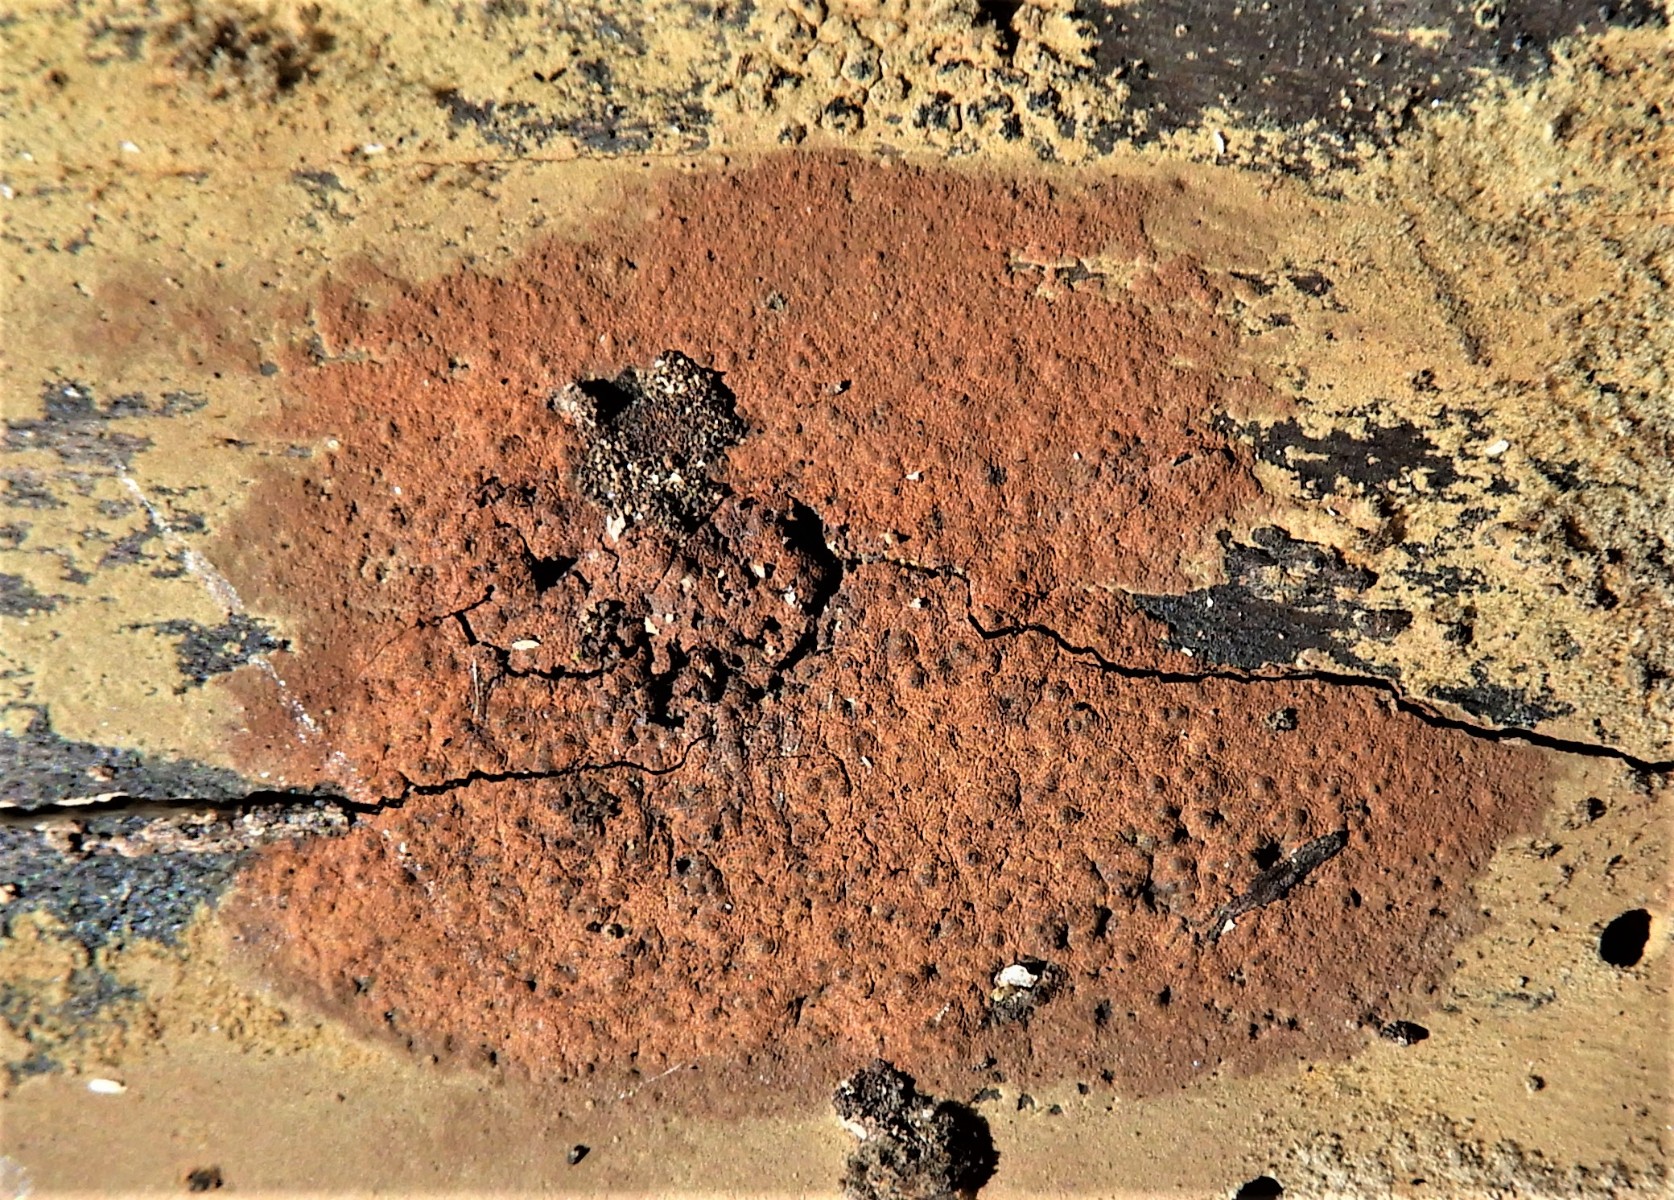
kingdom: Fungi
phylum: Ascomycota
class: Sordariomycetes
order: Xylariales
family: Hypoxylaceae
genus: Hypoxylon
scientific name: Hypoxylon rubiginosum
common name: rustfarvet kulbær
